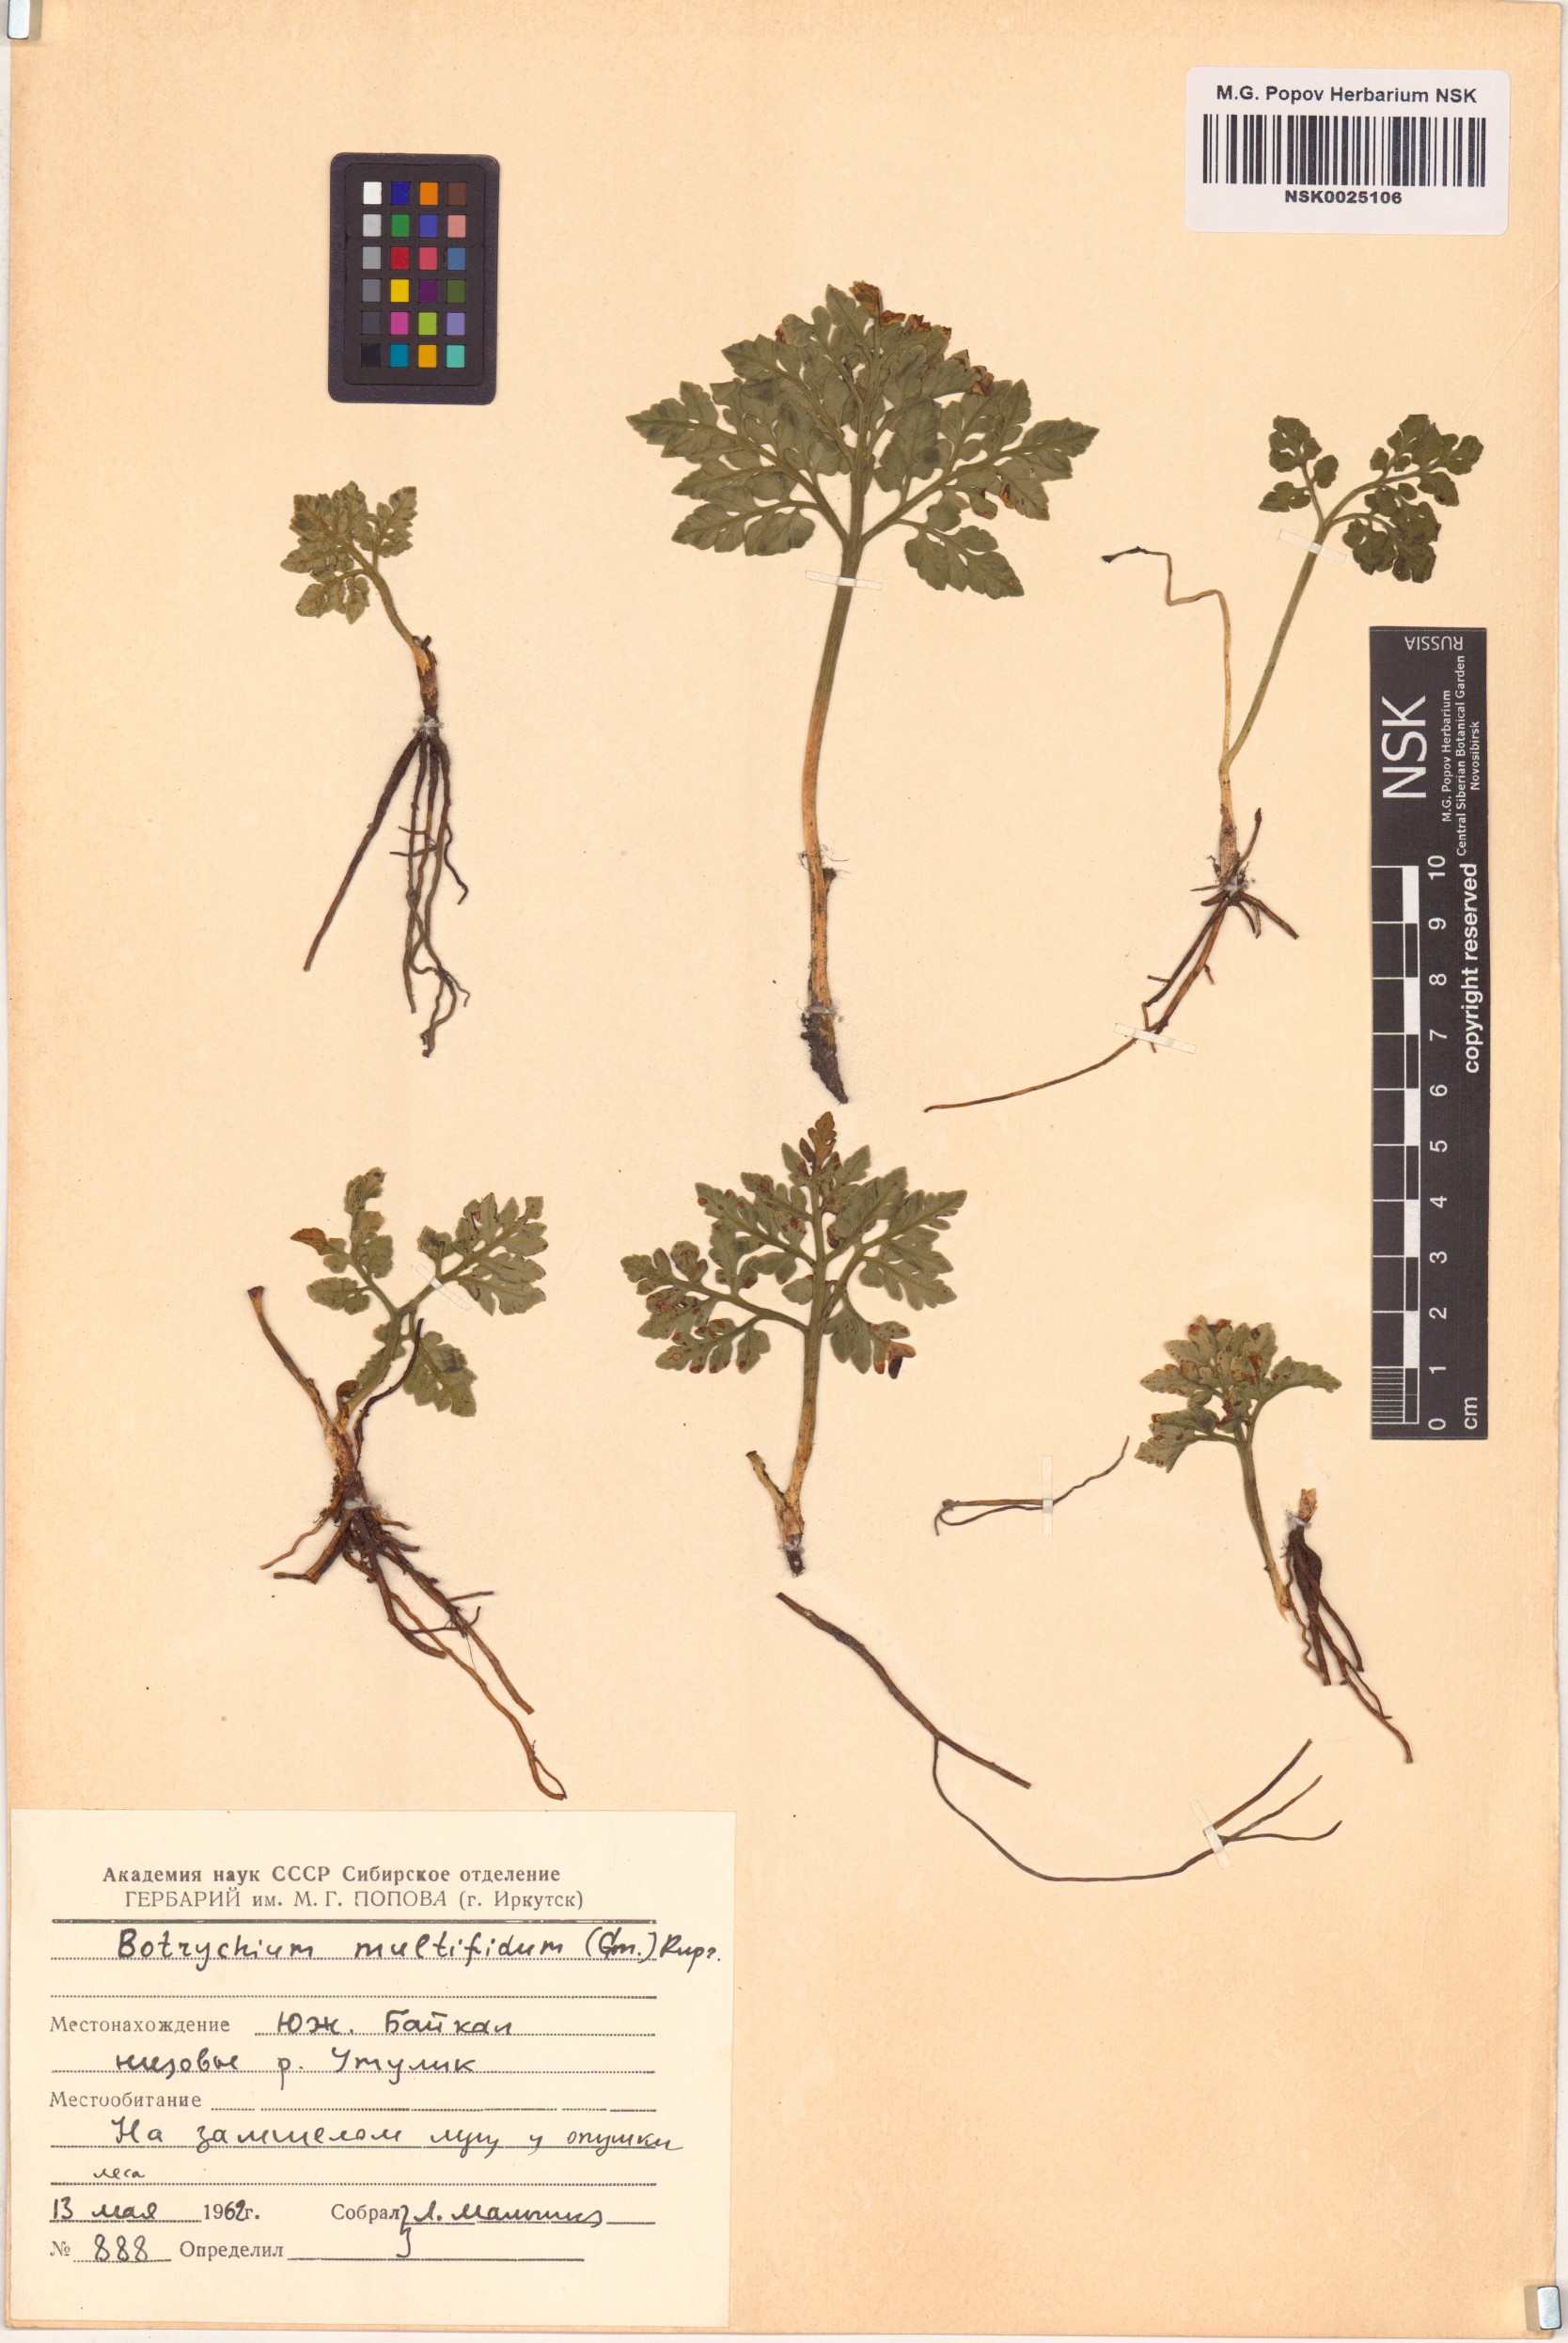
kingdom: Plantae
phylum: Tracheophyta
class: Polypodiopsida
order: Ophioglossales
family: Ophioglossaceae
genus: Sceptridium
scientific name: Sceptridium multifidum
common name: Leathery grape fern
